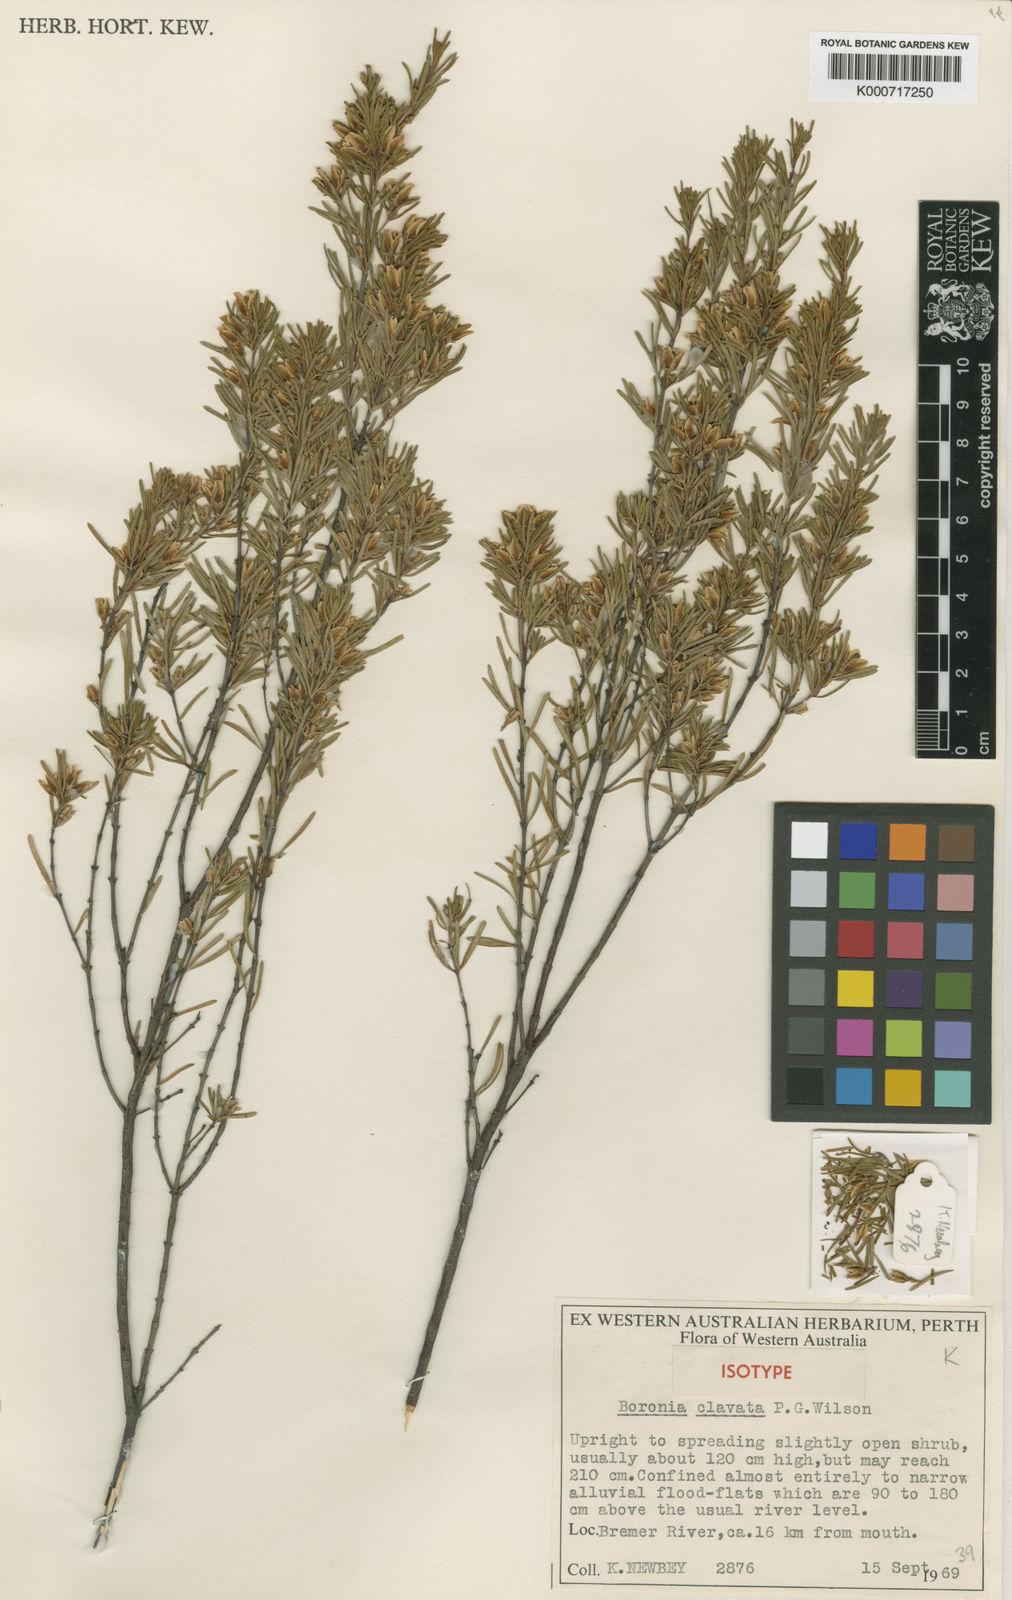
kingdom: Plantae
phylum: Tracheophyta
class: Magnoliopsida
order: Sapindales
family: Rutaceae
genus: Boronia
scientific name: Boronia clavata
